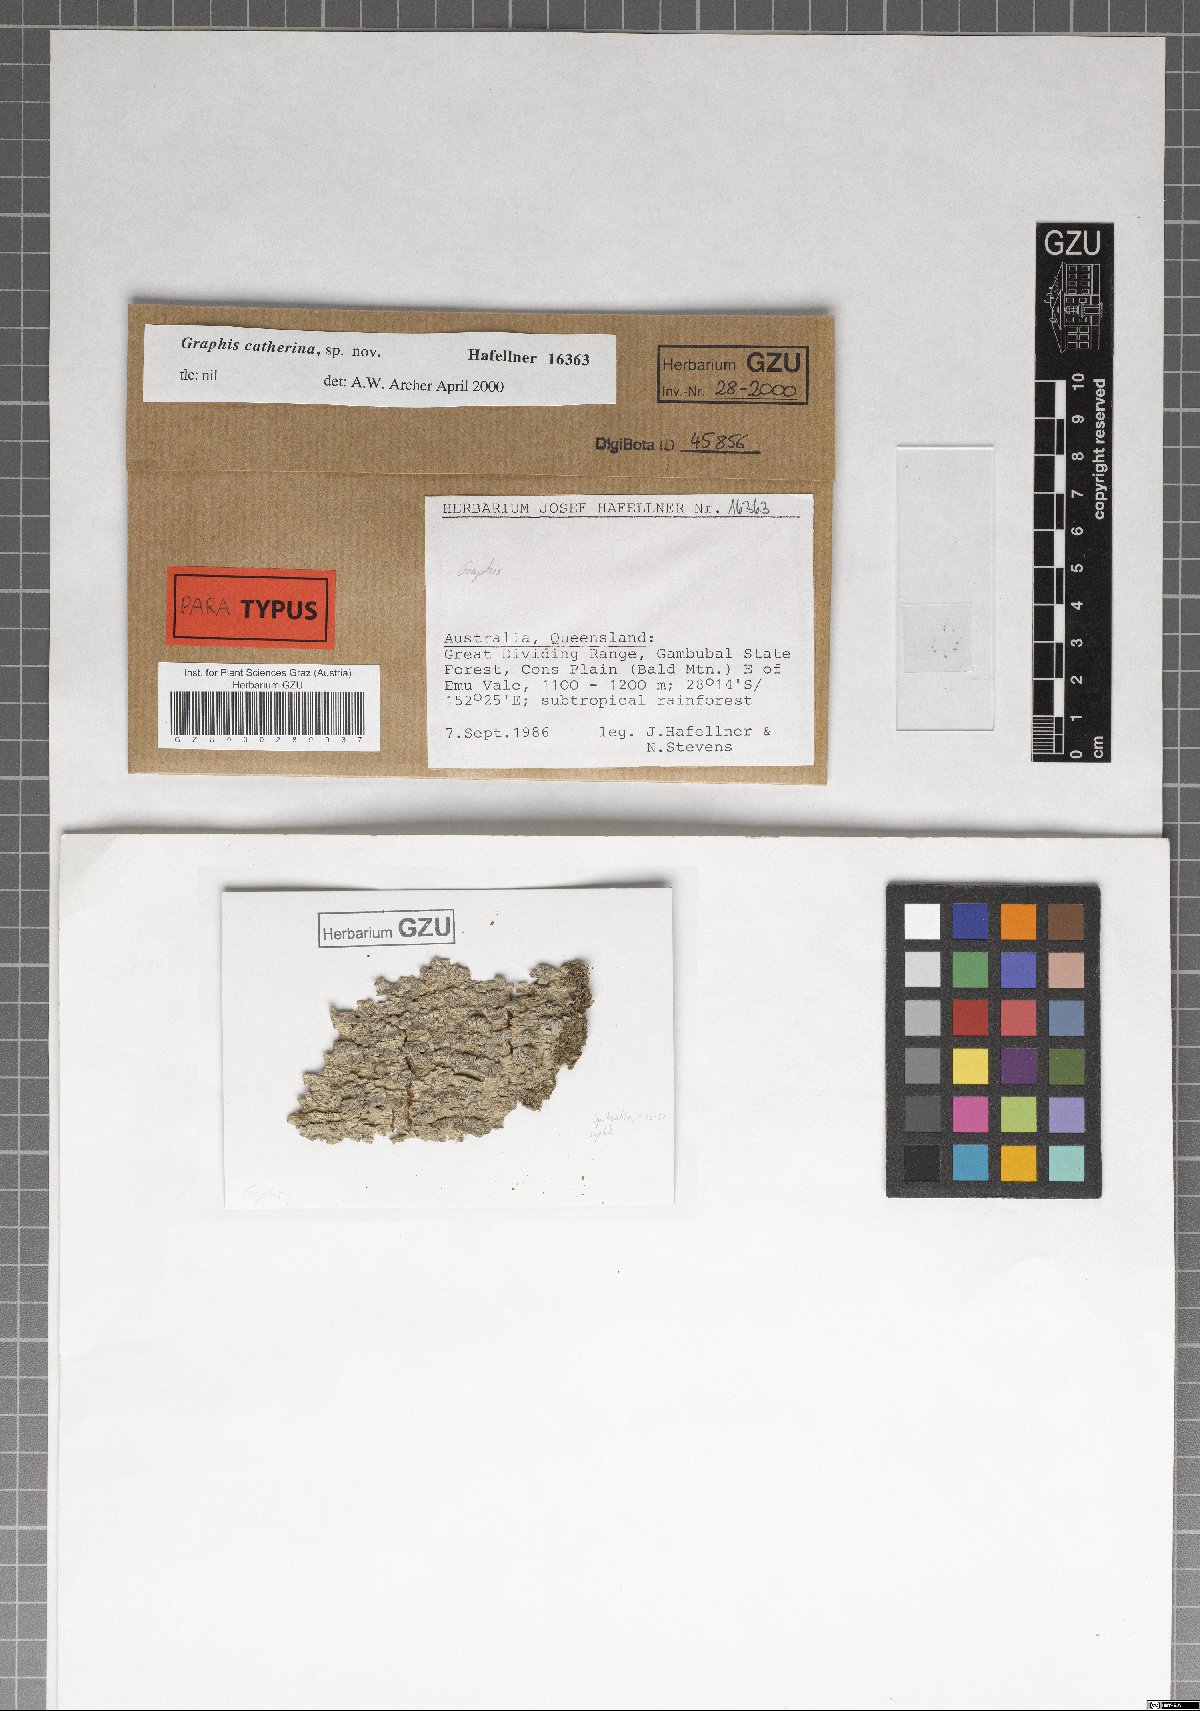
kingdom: Fungi
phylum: Ascomycota
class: Lecanoromycetes
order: Ostropales
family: Graphidaceae
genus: Graphis
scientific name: Graphis catherinae
